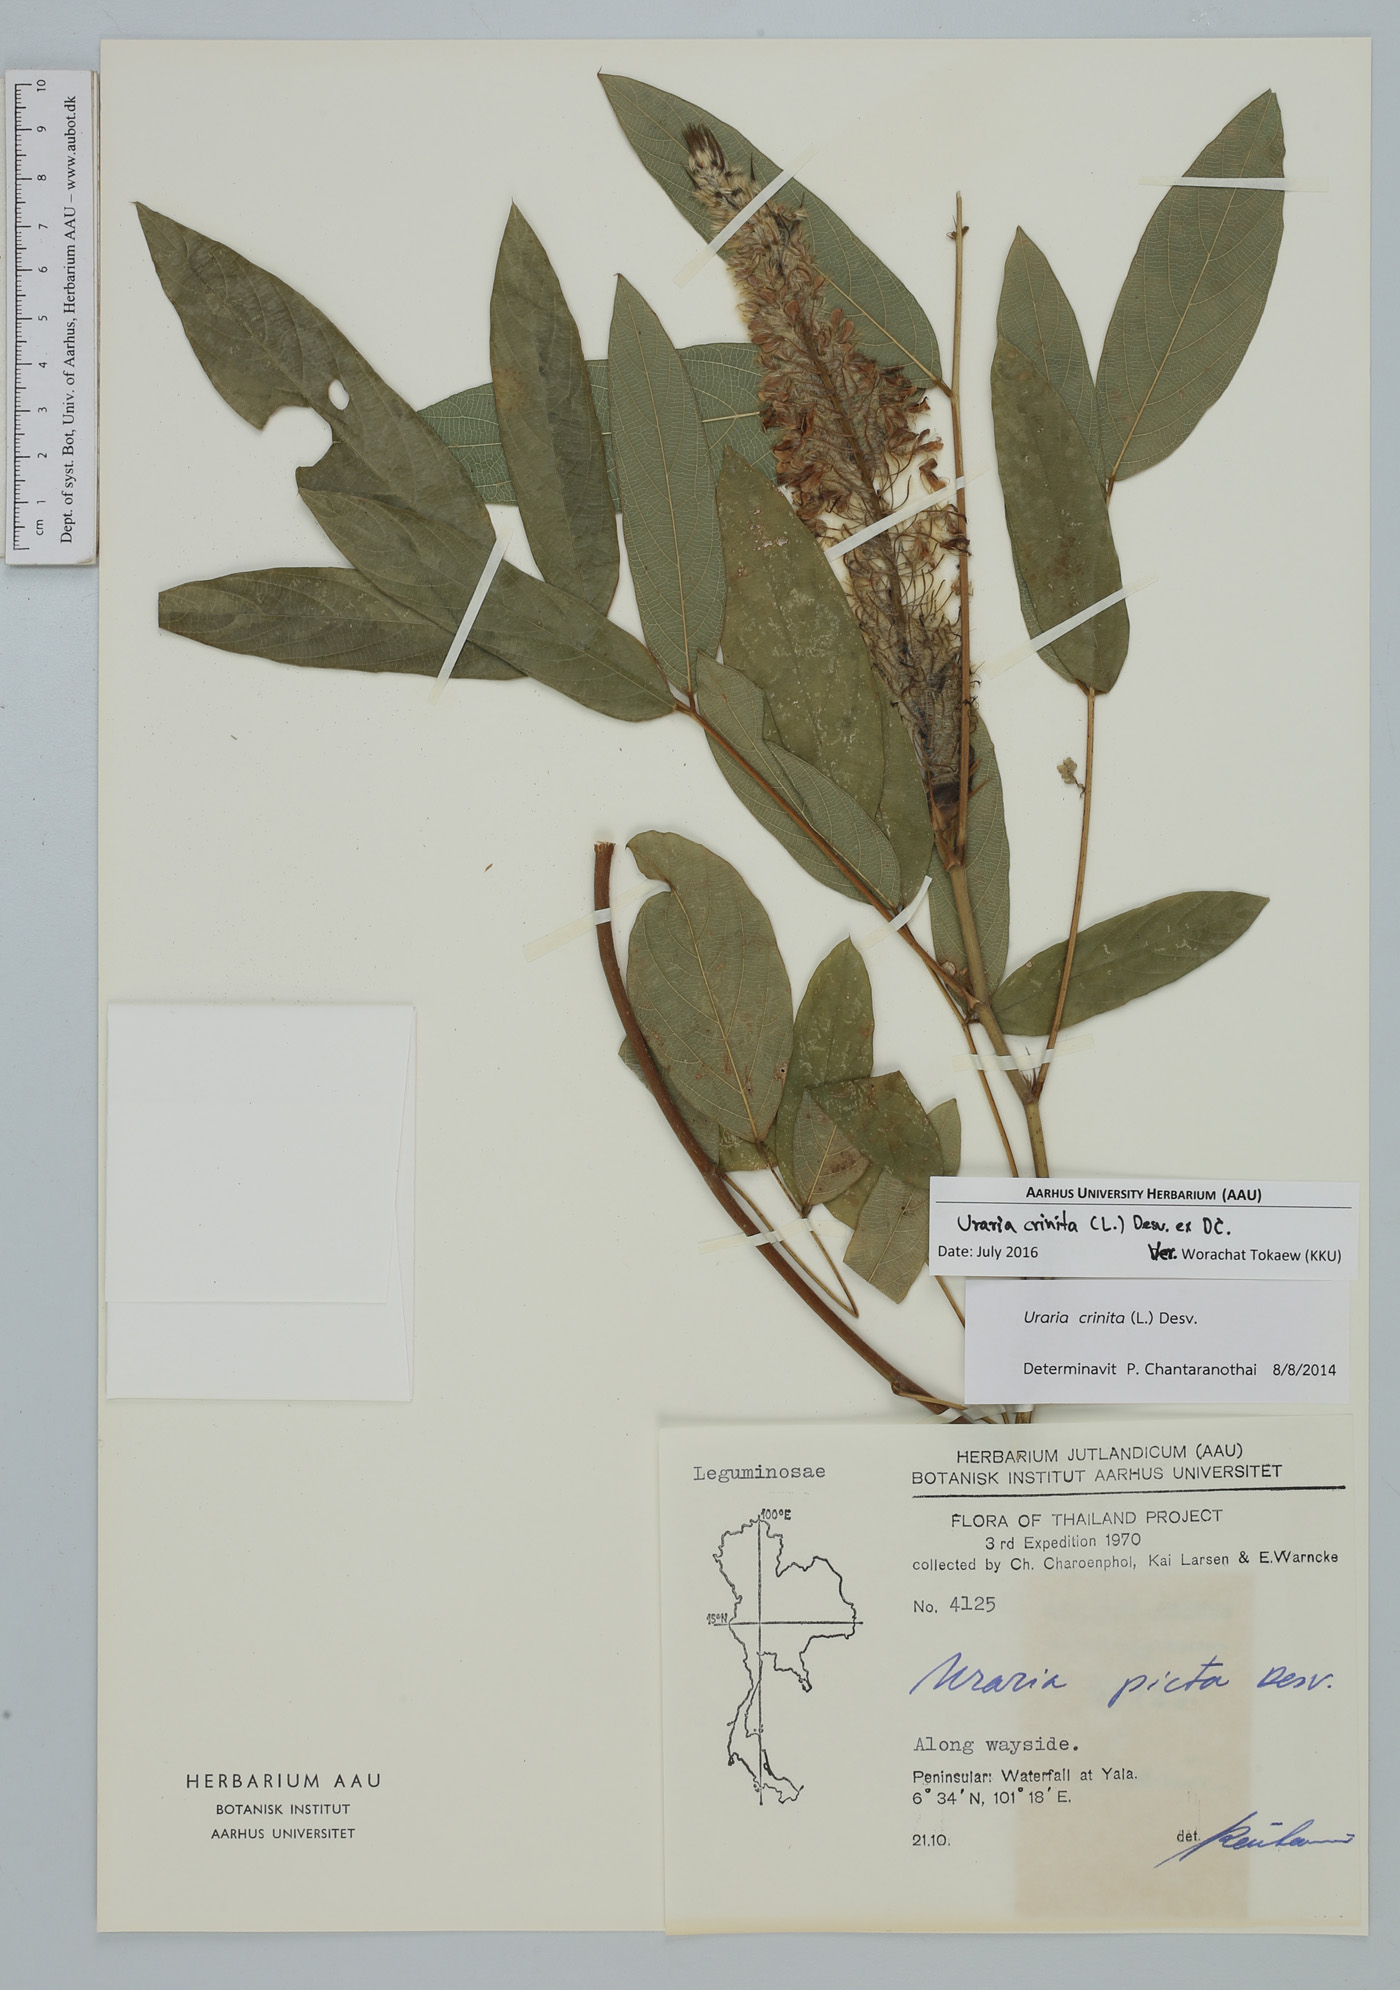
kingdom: Plantae
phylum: Tracheophyta
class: Magnoliopsida
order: Fabales
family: Fabaceae
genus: Uraria
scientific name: Uraria crinita
